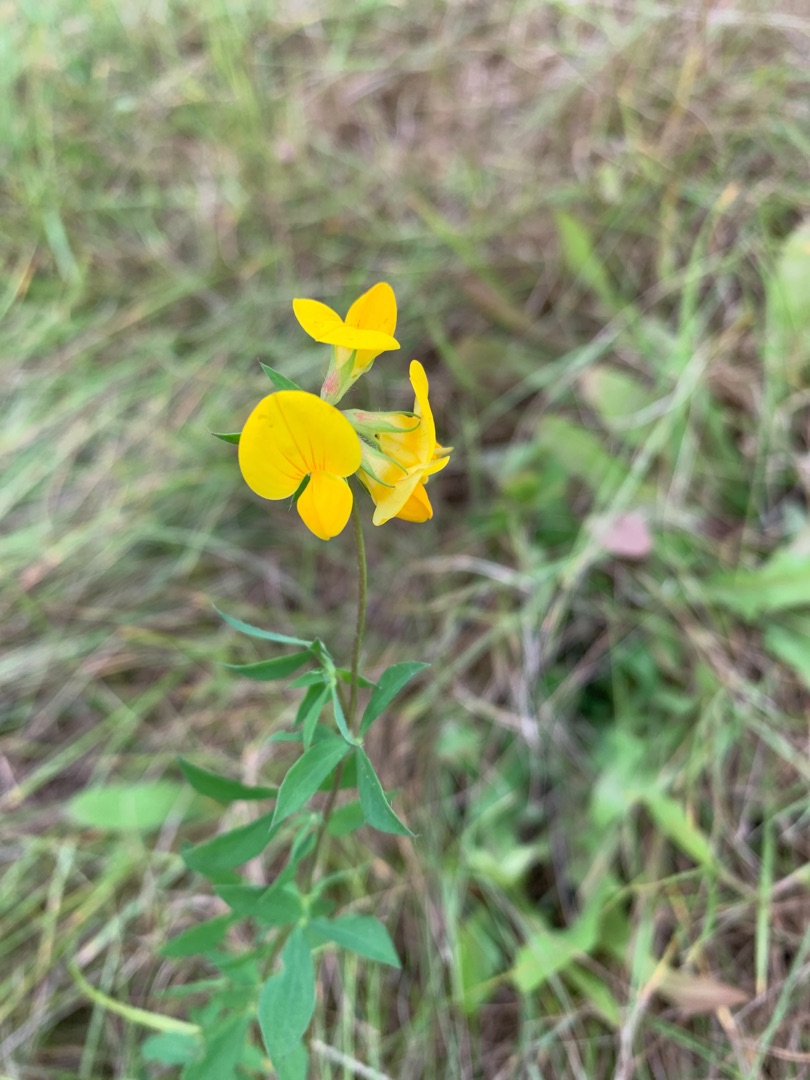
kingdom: Plantae
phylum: Tracheophyta
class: Magnoliopsida
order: Fabales
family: Fabaceae
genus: Lotus
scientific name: Lotus tenuis
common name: Smalbladet kællingetand
